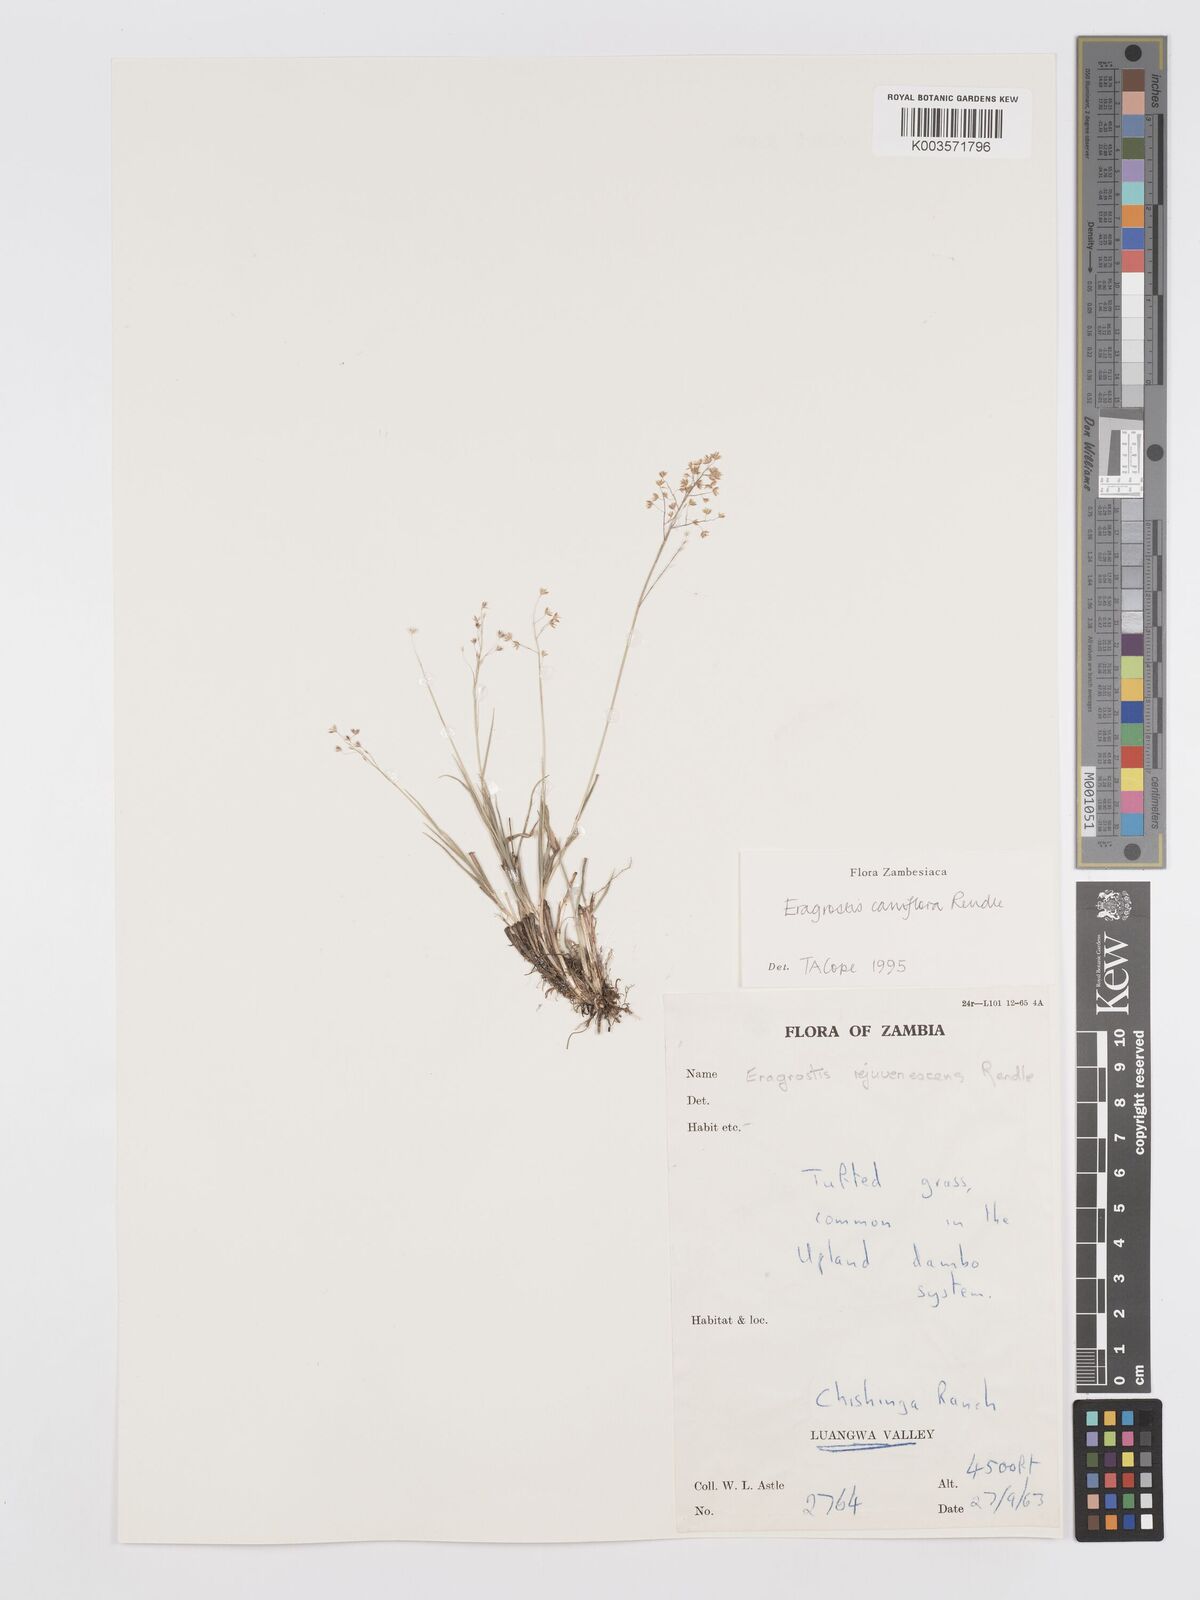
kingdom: Plantae
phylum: Tracheophyta
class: Liliopsida
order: Poales
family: Poaceae
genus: Eragrostis
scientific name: Eragrostis caniflora
